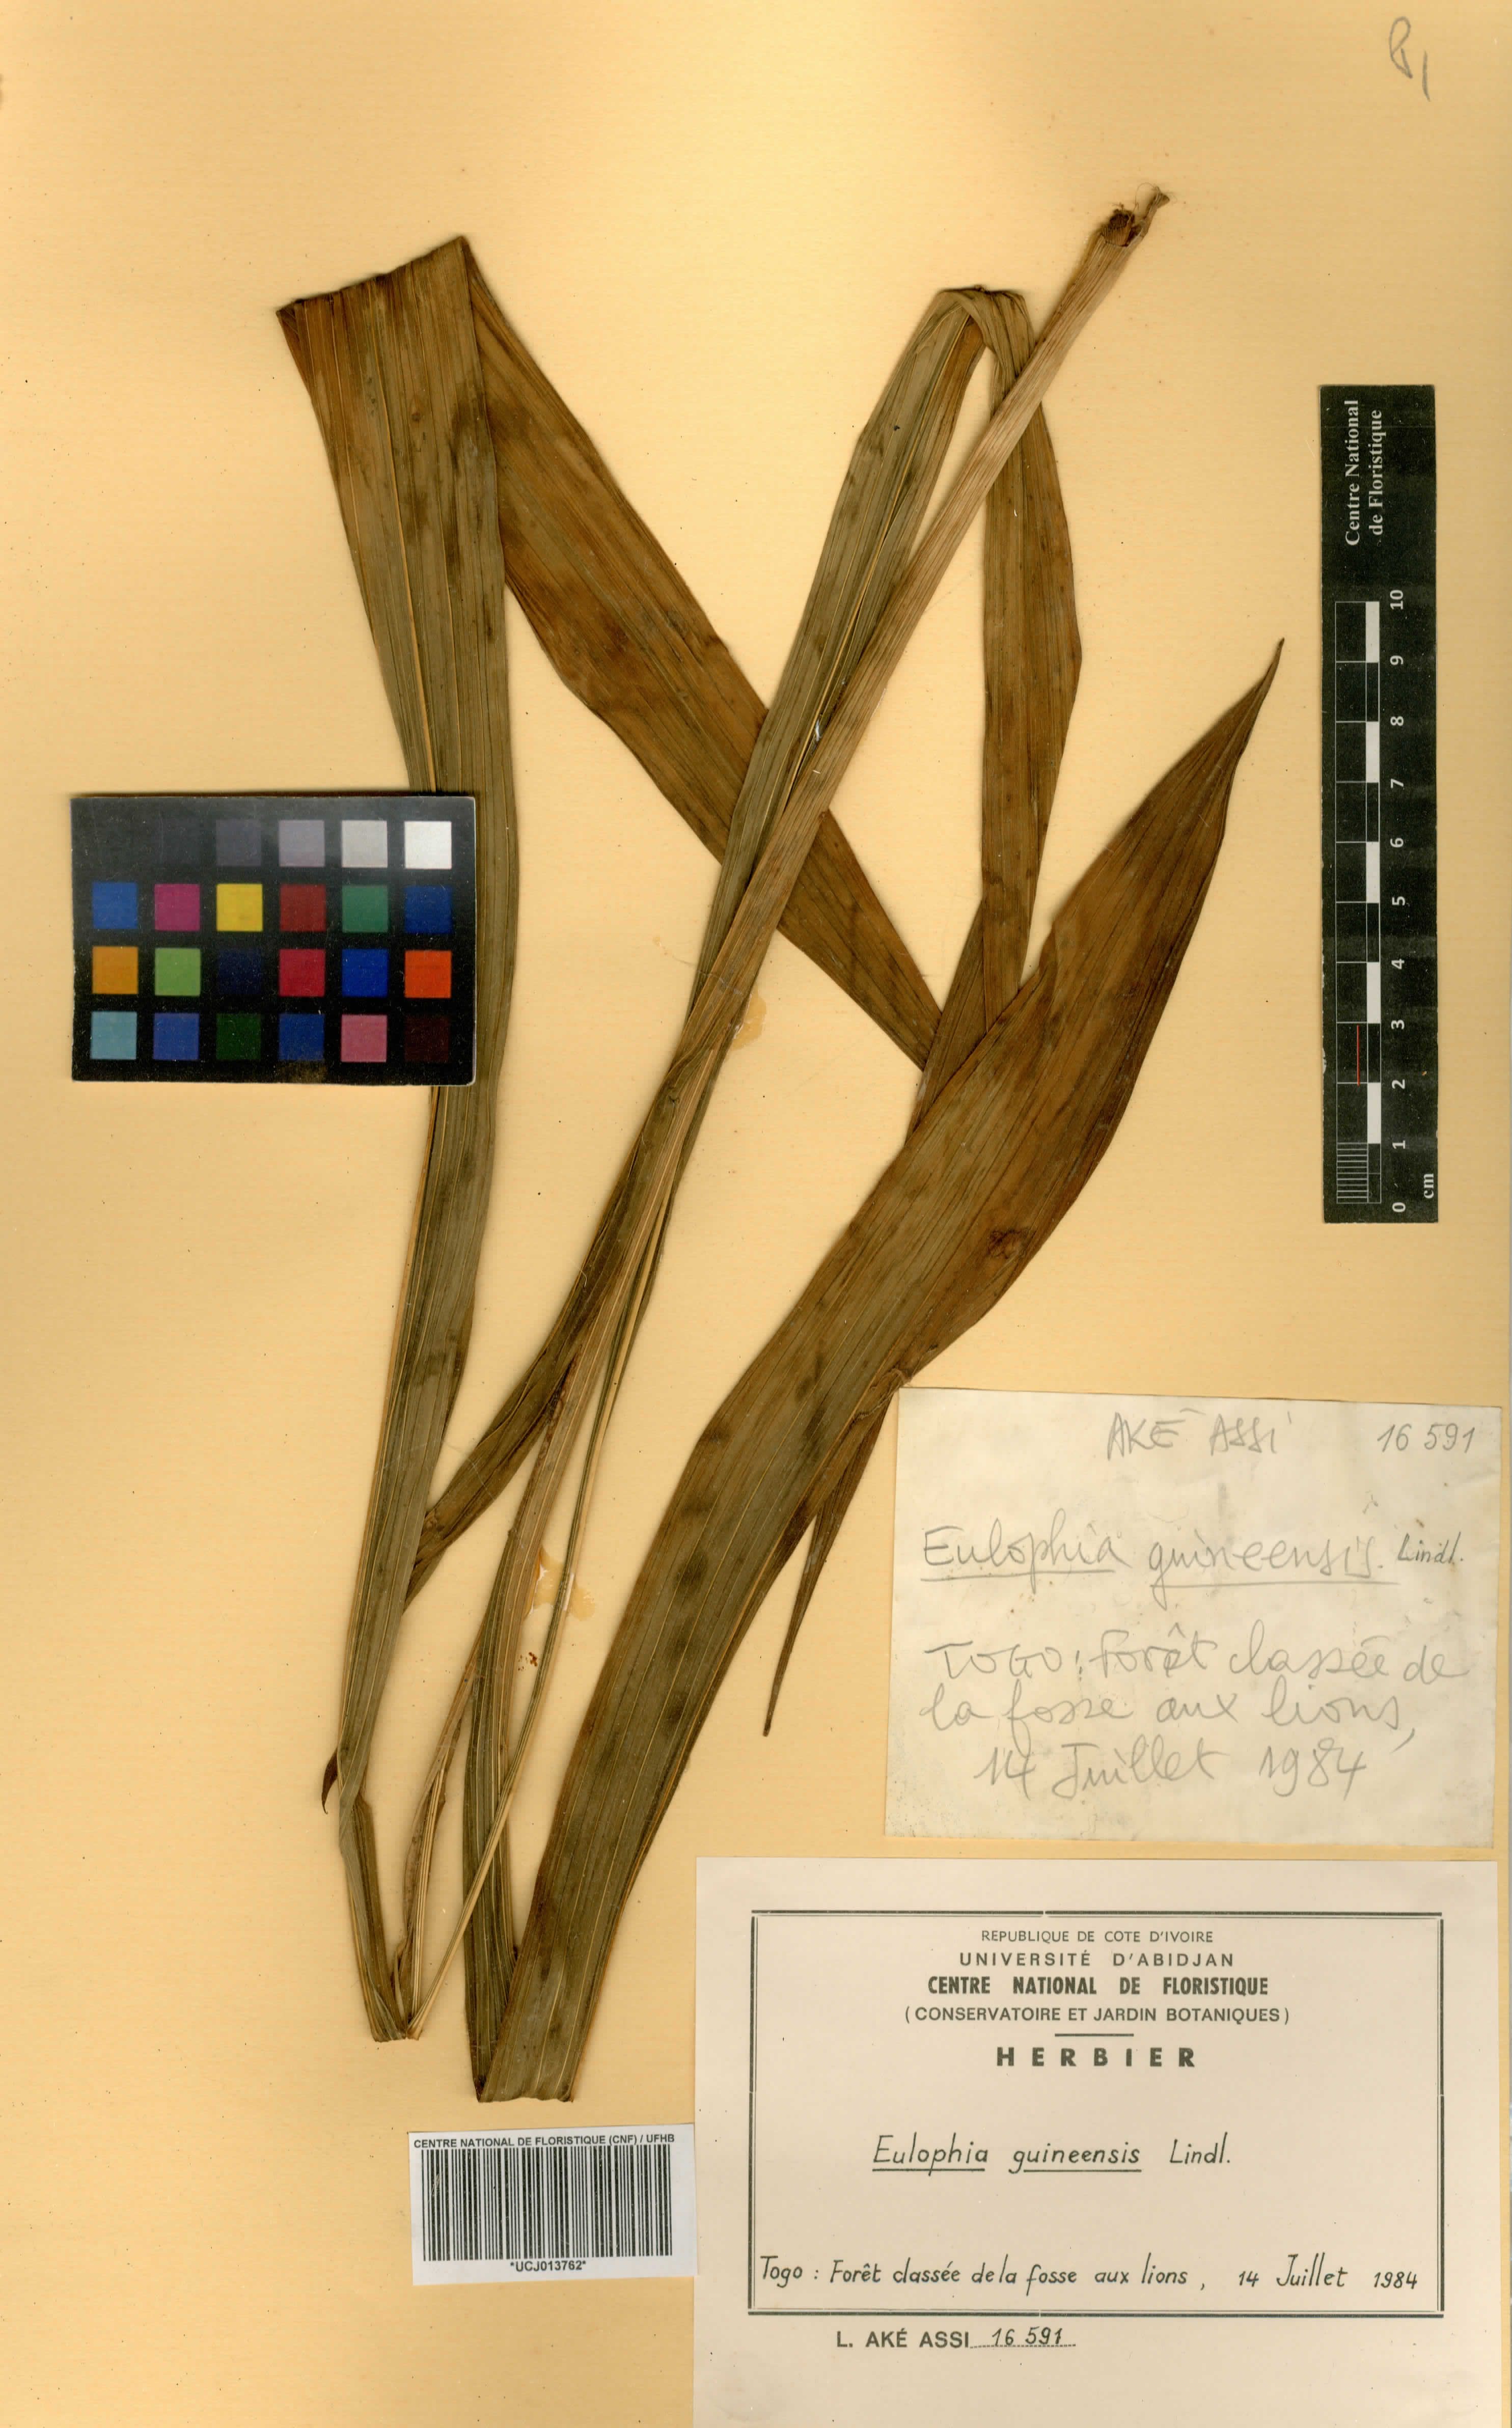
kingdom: Plantae
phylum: Tracheophyta
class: Liliopsida
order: Asparagales
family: Orchidaceae
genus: Eulophia
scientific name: Eulophia guineensis
